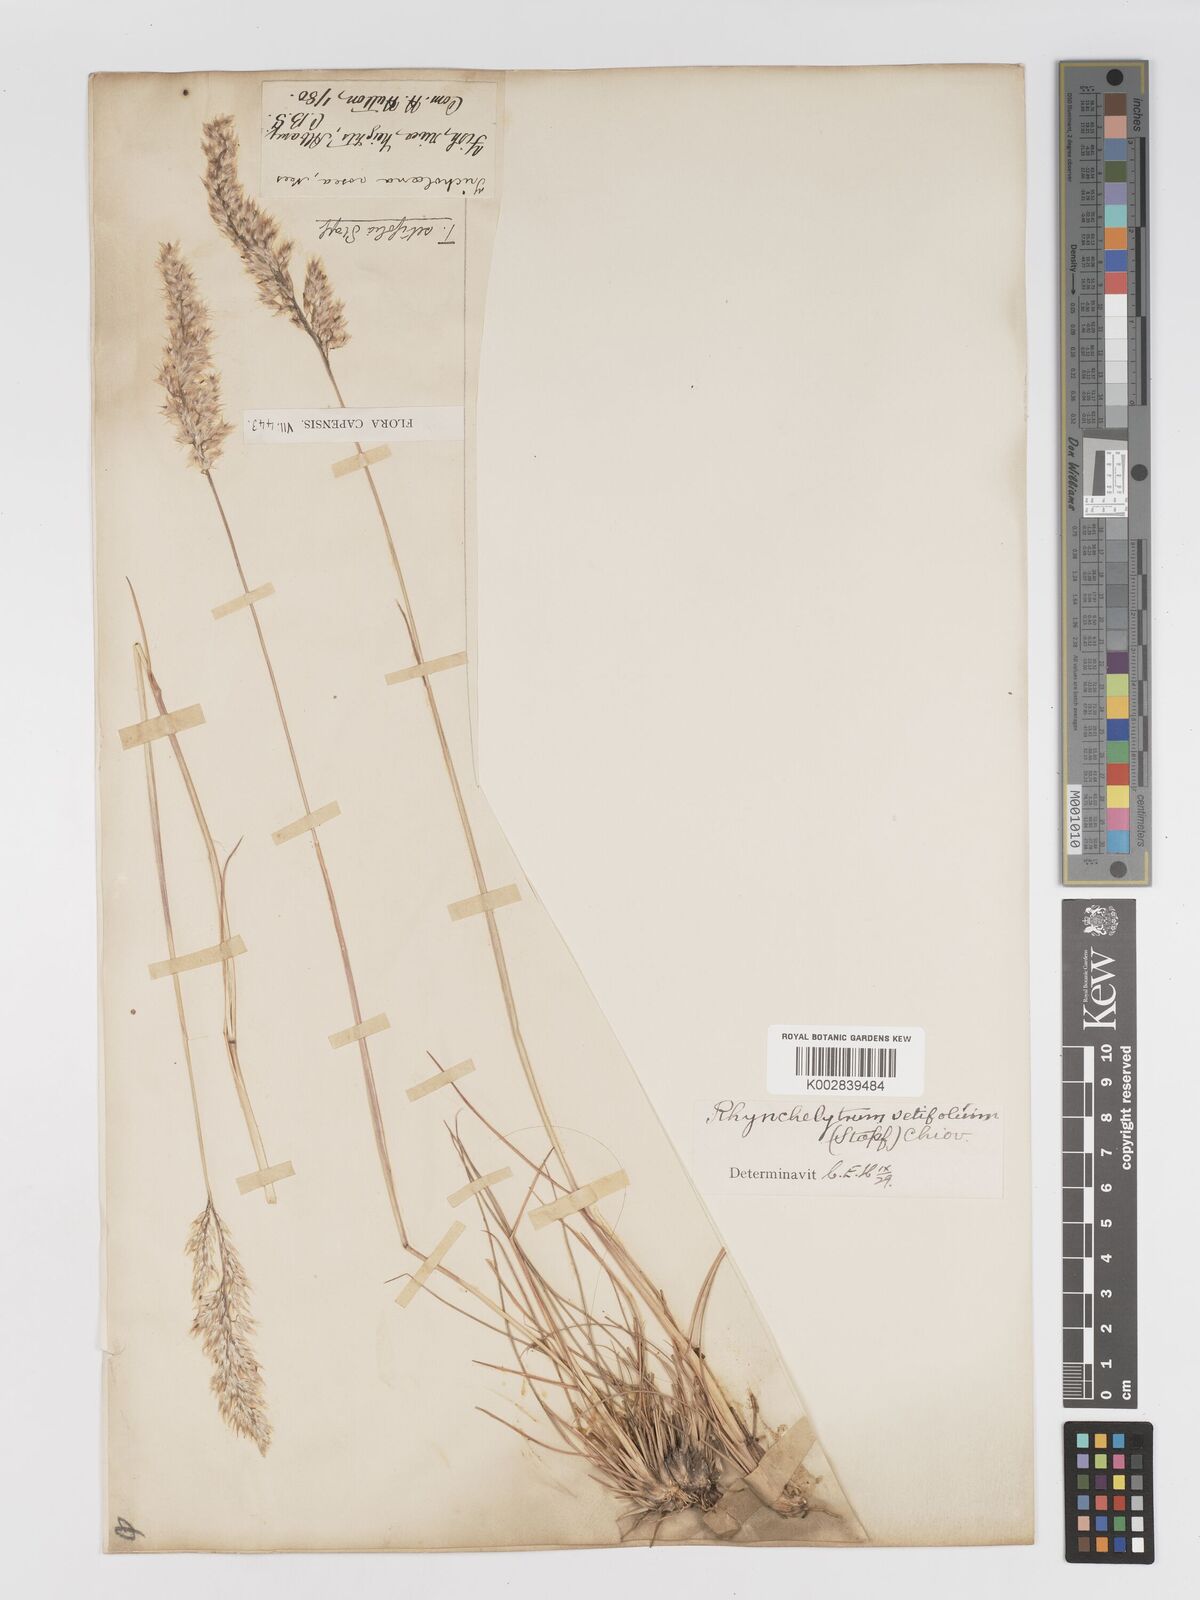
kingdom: Plantae
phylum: Tracheophyta
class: Liliopsida
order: Poales
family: Poaceae
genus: Melinis
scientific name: Melinis nerviglumis
